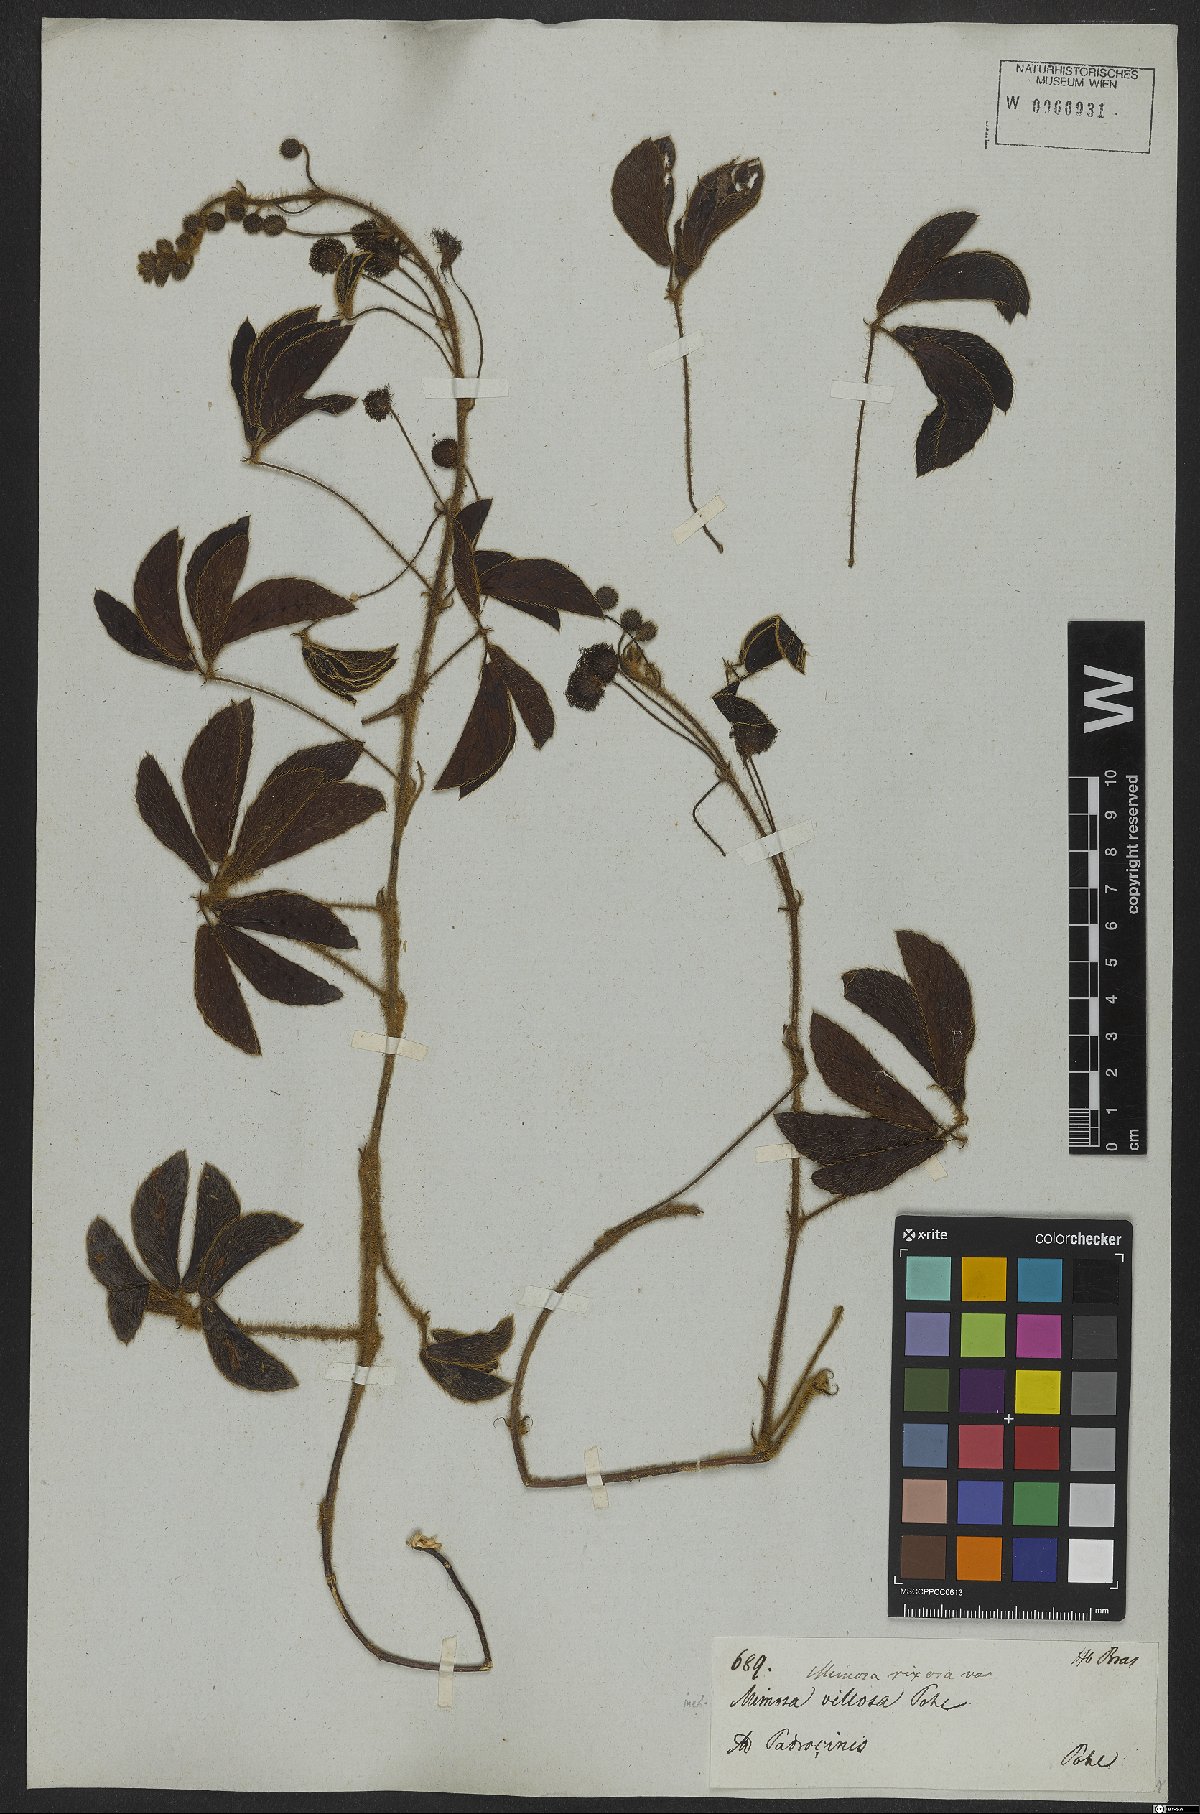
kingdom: Plantae
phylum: Tracheophyta
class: Magnoliopsida
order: Fabales
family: Fabaceae
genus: Mimosa
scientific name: Mimosa debilis
